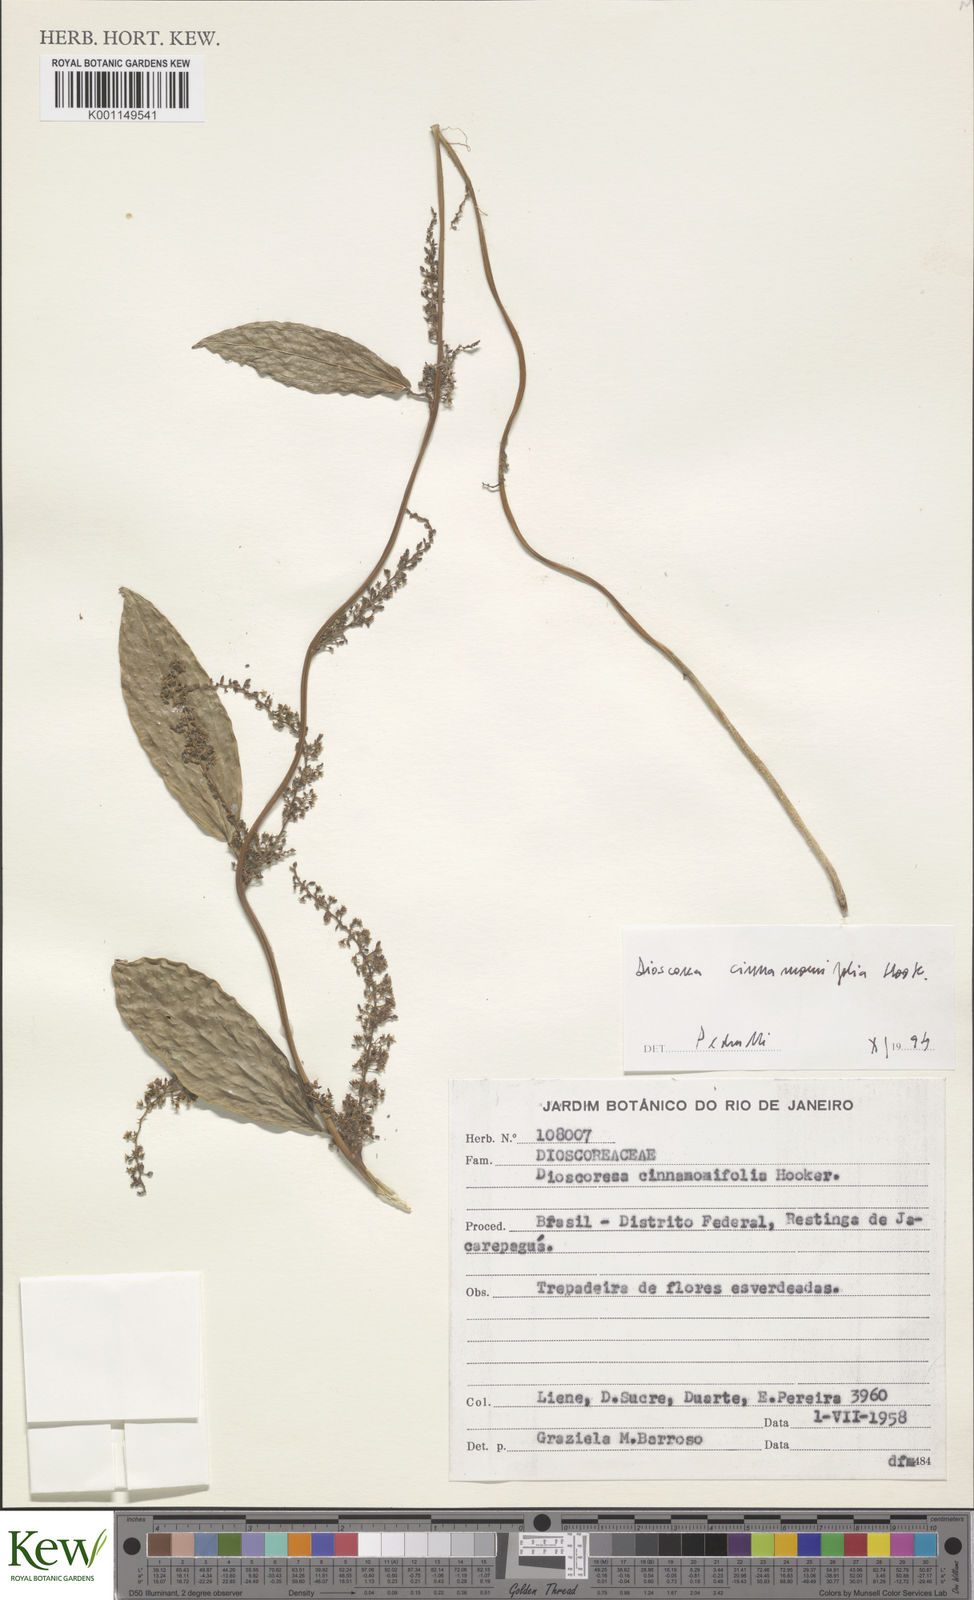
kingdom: Plantae
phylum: Tracheophyta
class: Liliopsida
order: Dioscoreales
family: Dioscoreaceae
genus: Dioscorea
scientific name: Dioscorea cinnamomifolia
